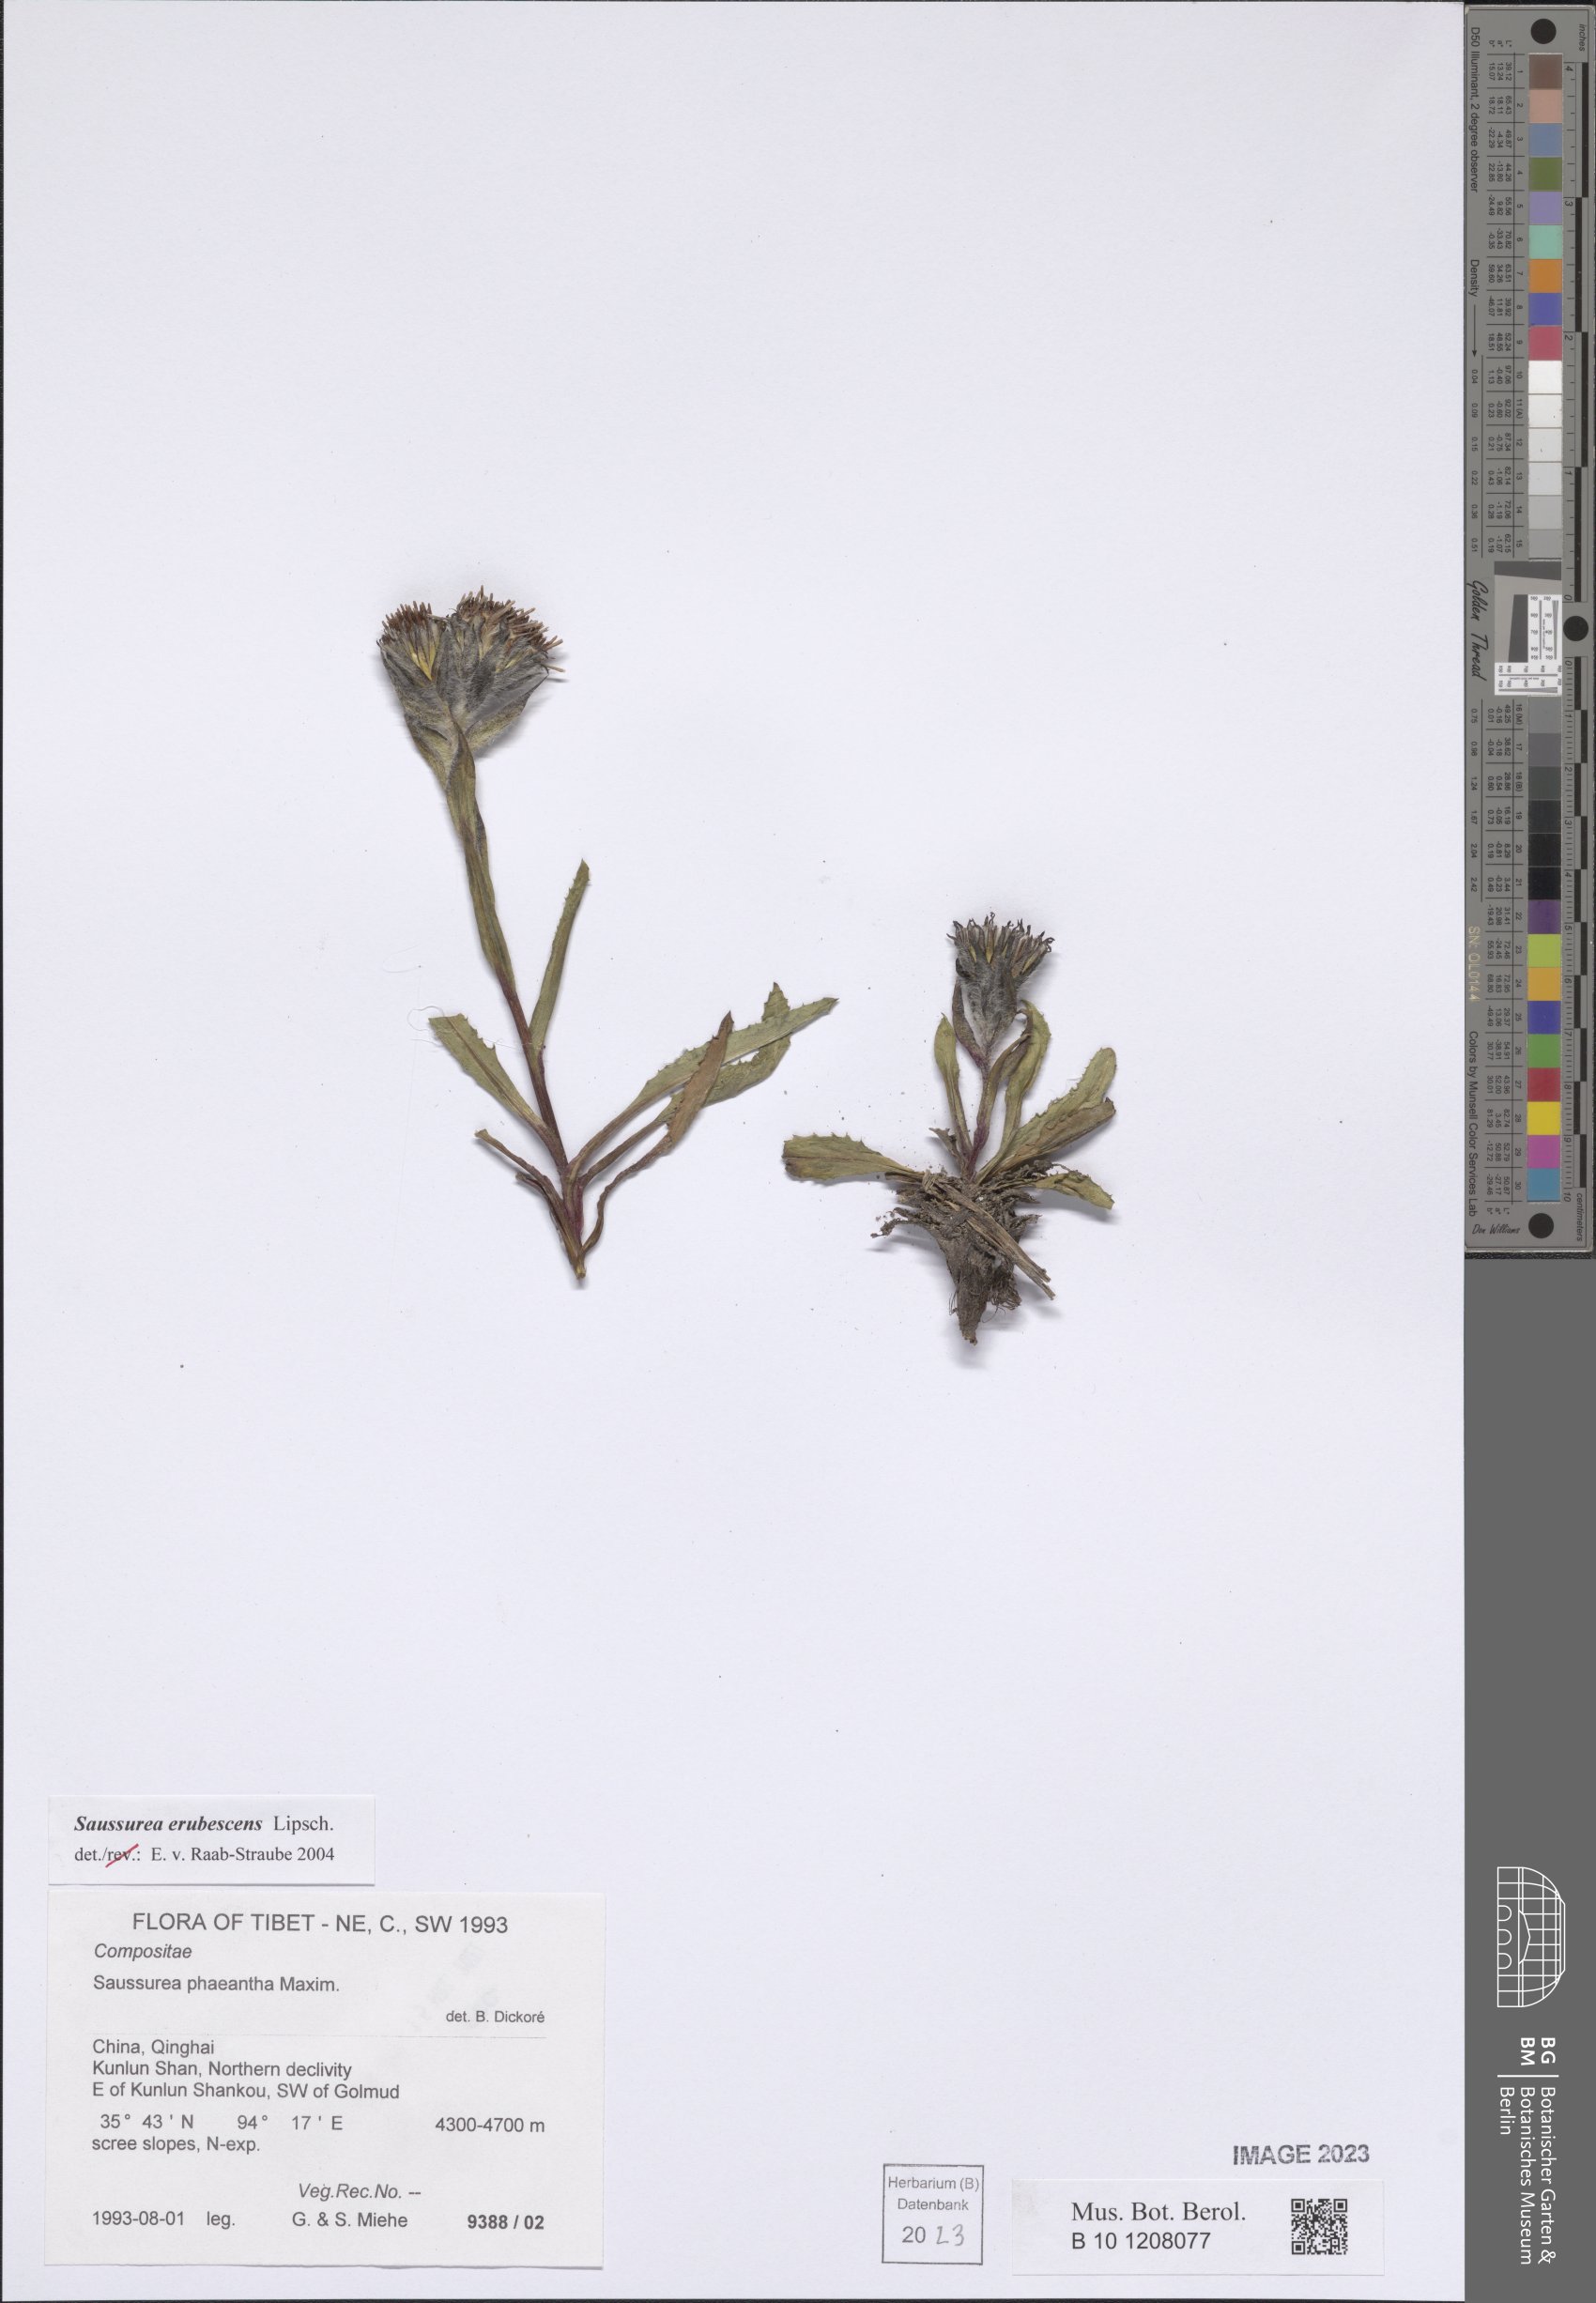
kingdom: Plantae
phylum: Tracheophyta
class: Magnoliopsida
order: Asterales
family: Asteraceae
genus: Saussurea
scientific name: Saussurea erubescens
